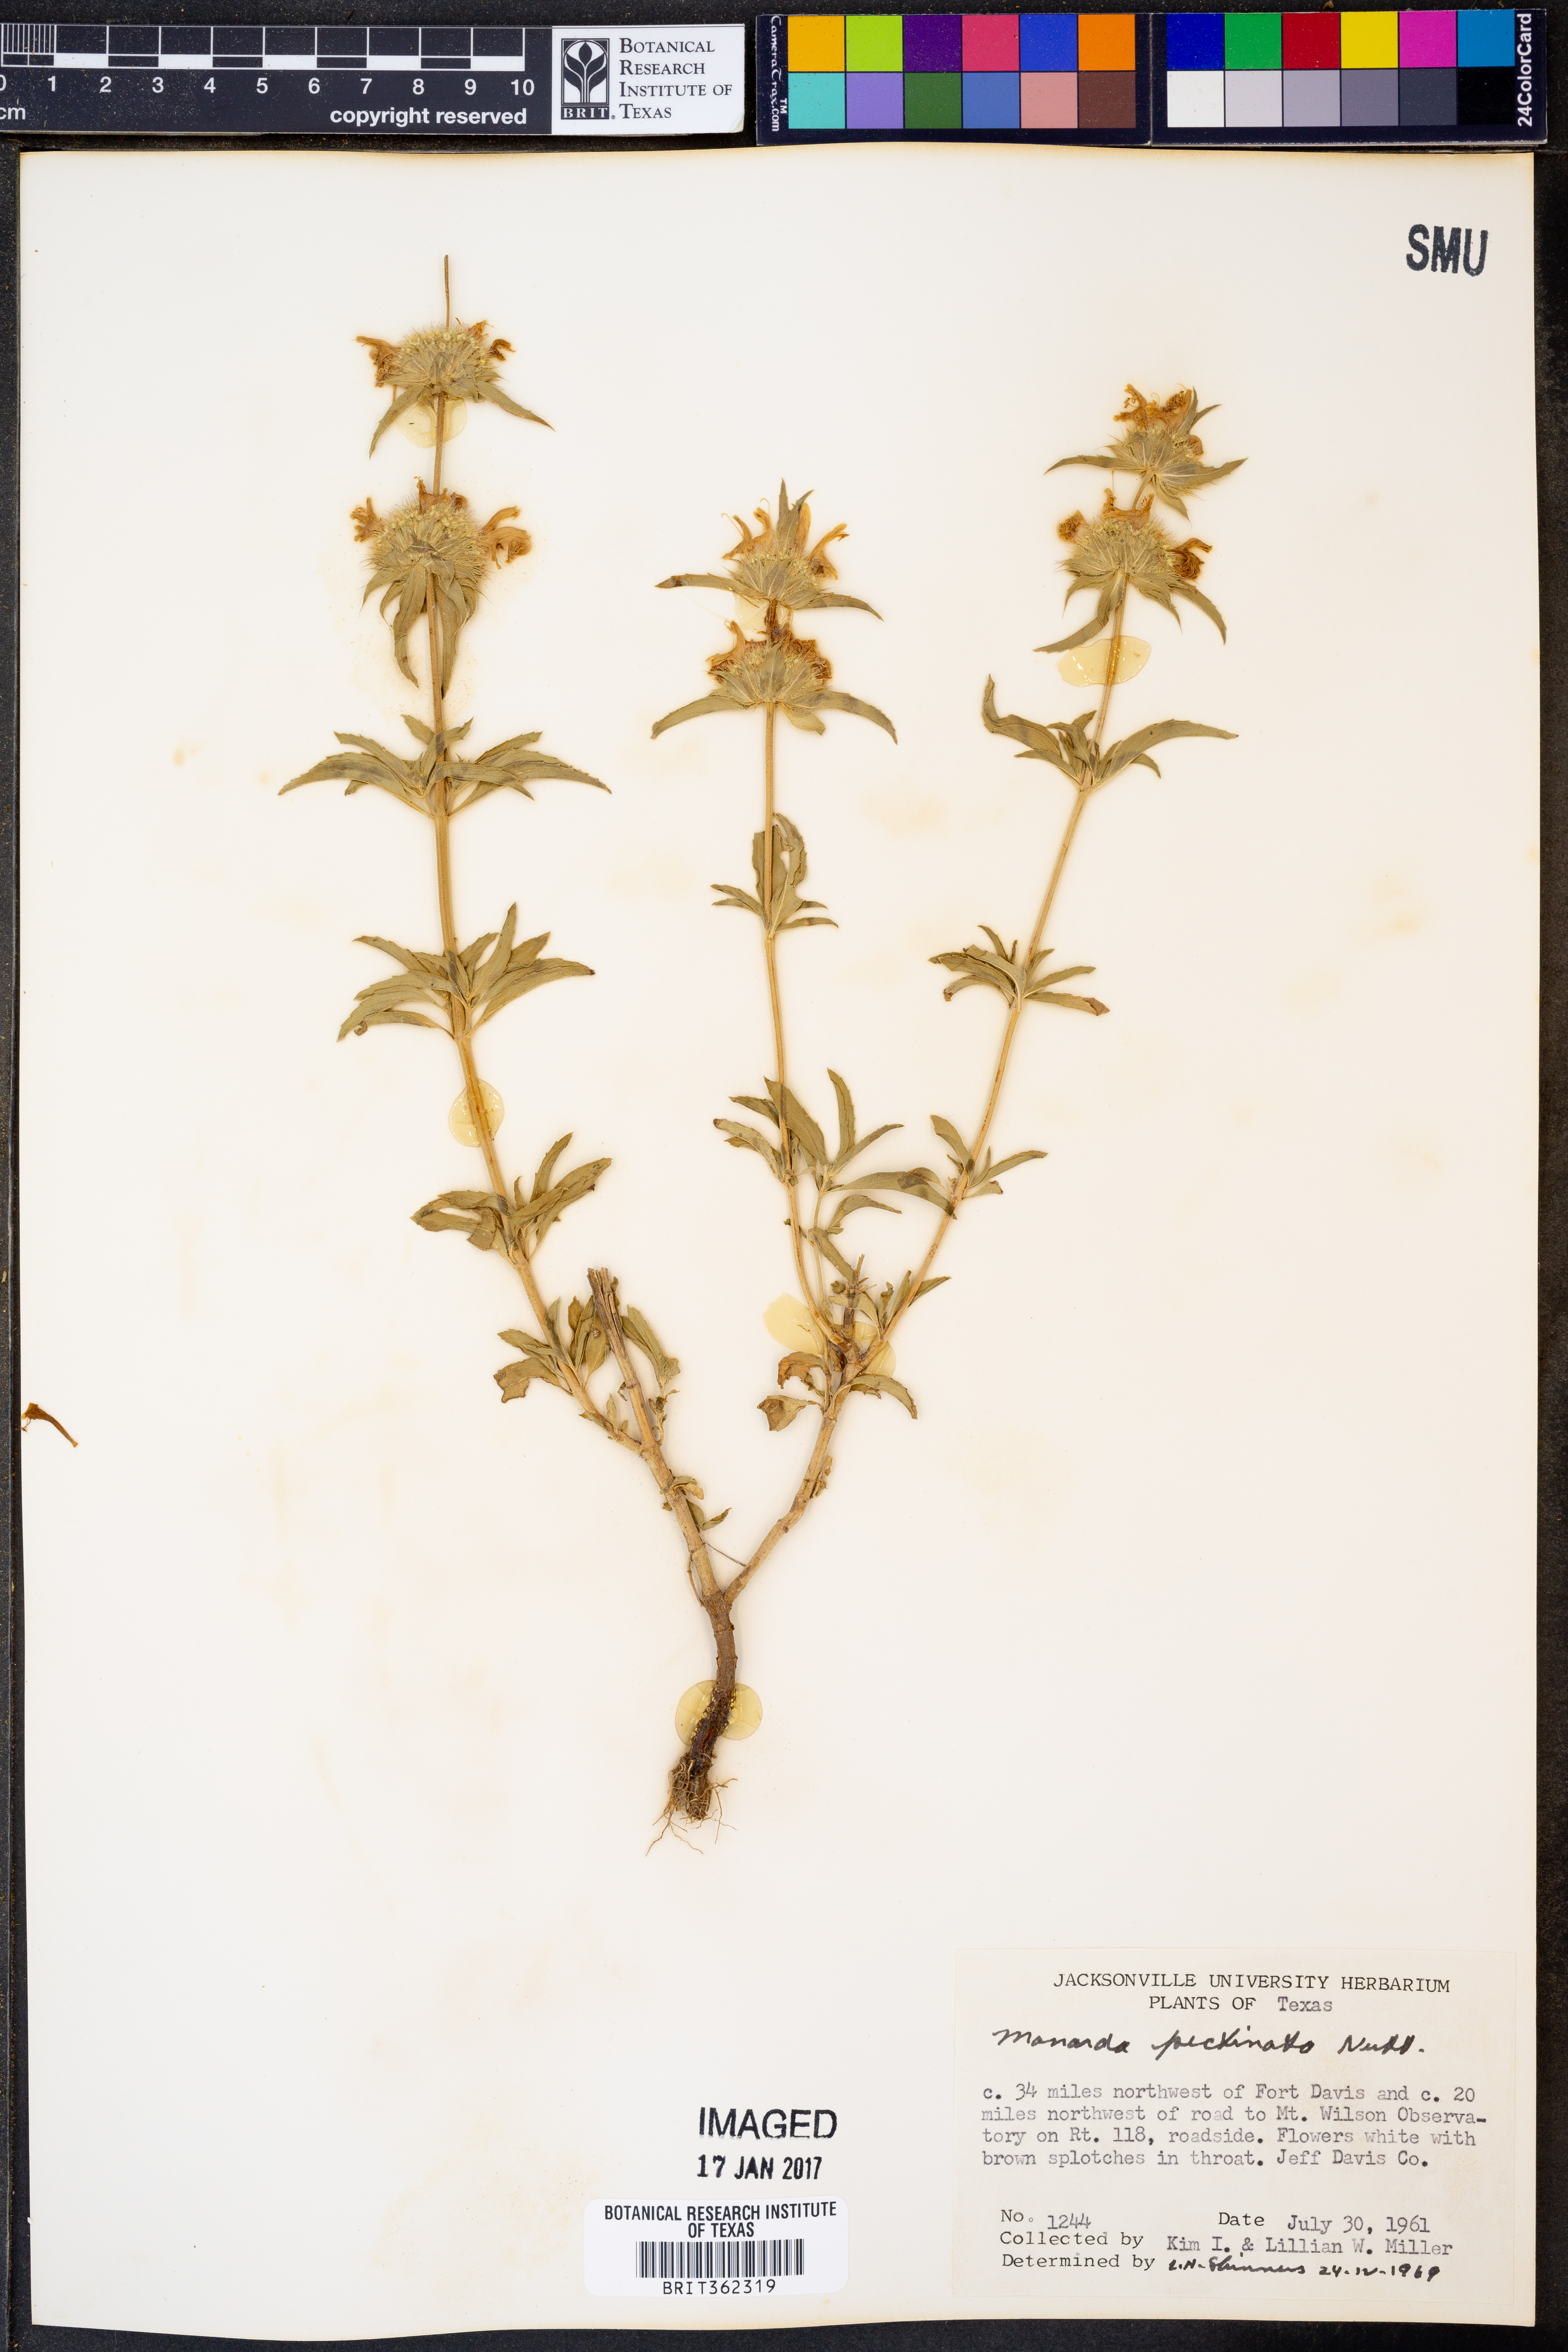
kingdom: Plantae
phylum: Tracheophyta
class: Magnoliopsida
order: Lamiales
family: Lamiaceae
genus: Monarda
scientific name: Monarda pectinata
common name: Plains beebalm
